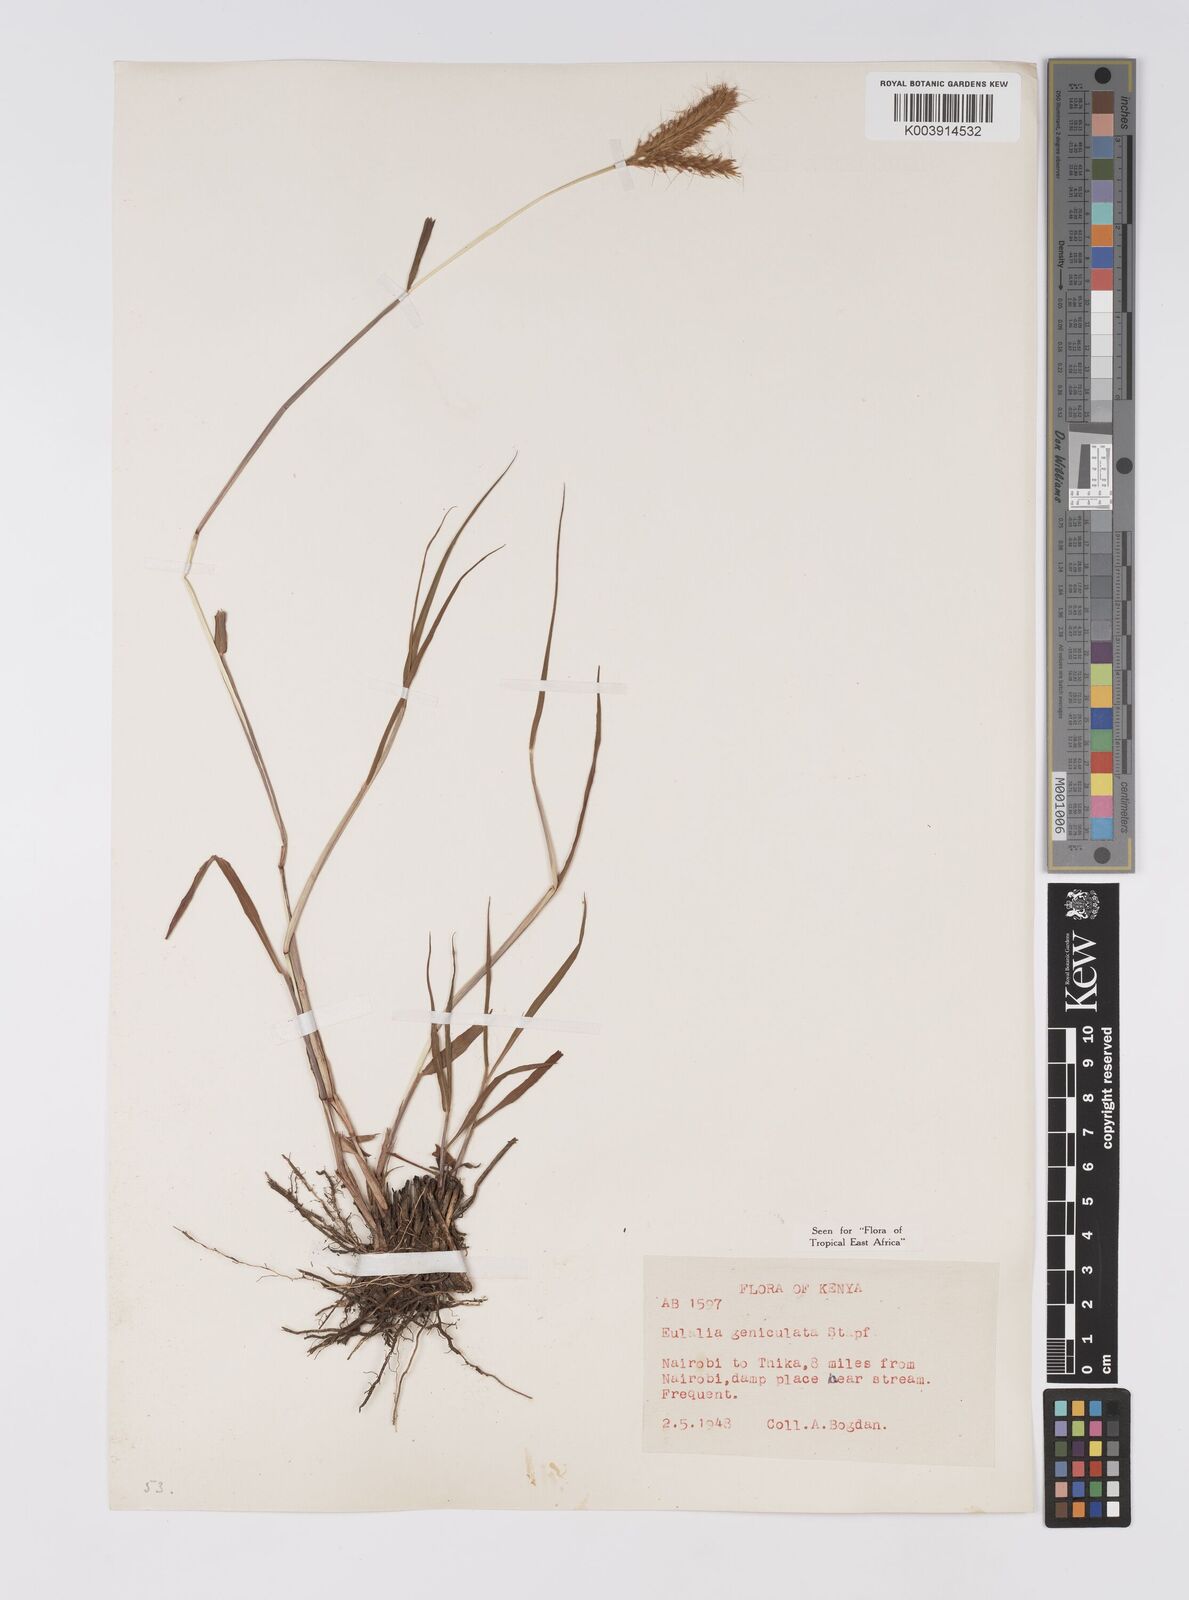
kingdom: Plantae
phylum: Tracheophyta
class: Liliopsida
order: Poales
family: Poaceae
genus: Eulalia
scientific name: Eulalia aurea
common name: Silky browntop
